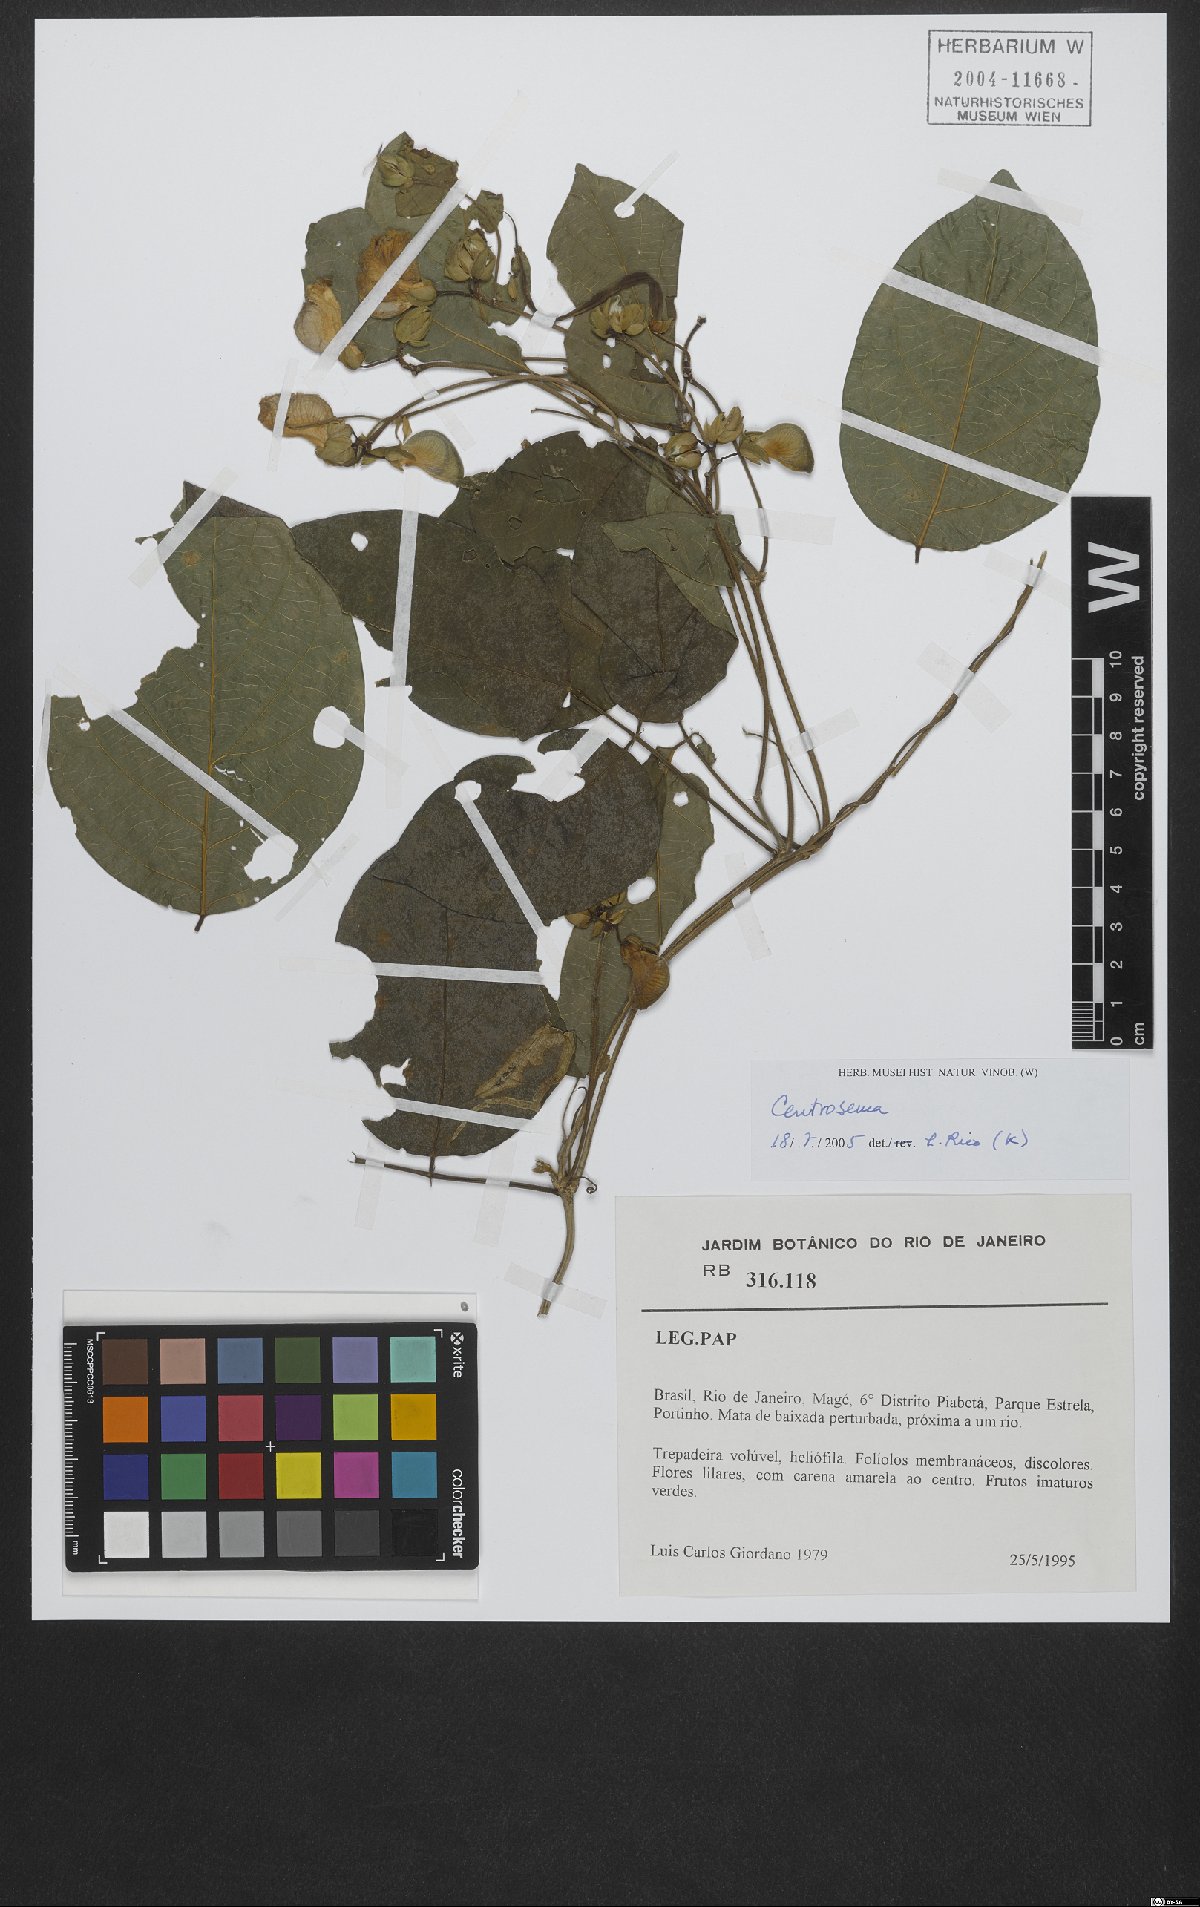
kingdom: Plantae
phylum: Tracheophyta
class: Magnoliopsida
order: Fabales
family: Fabaceae
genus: Centrosema
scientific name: Centrosema
